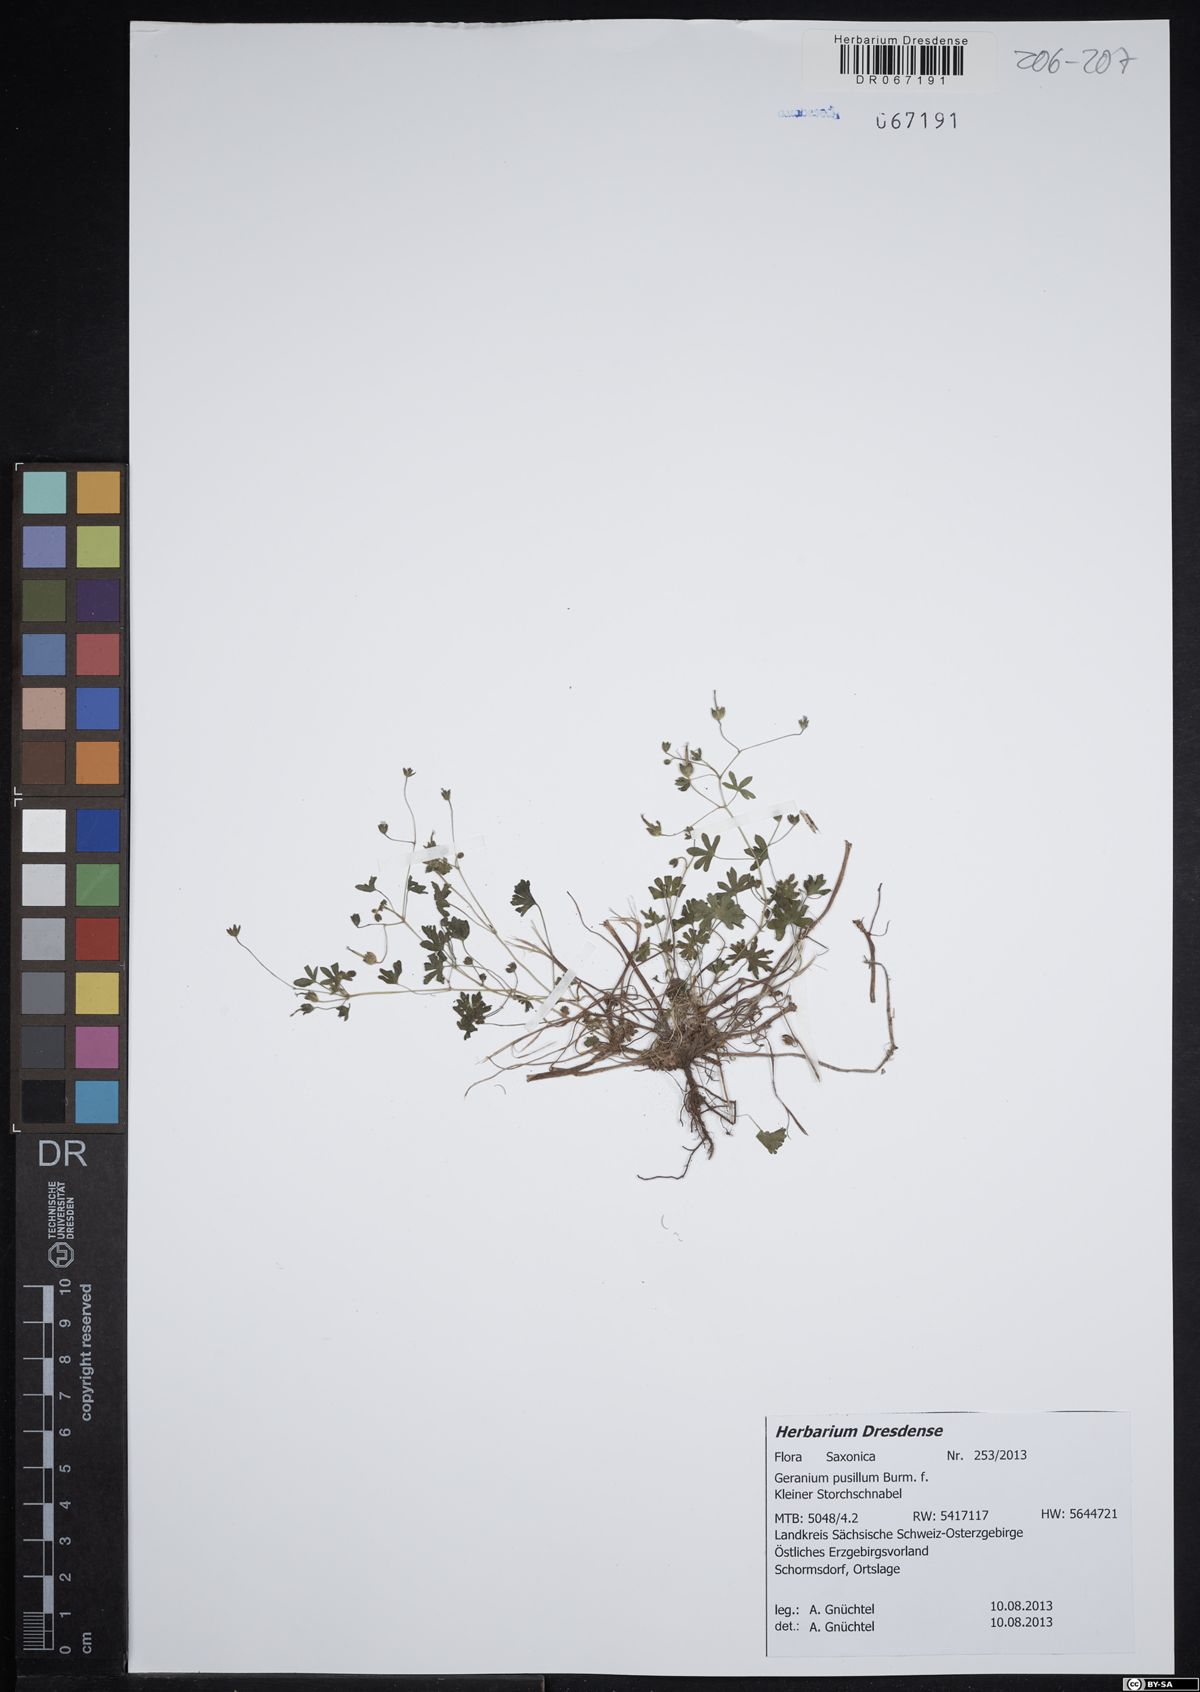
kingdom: Plantae
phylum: Tracheophyta
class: Magnoliopsida
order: Geraniales
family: Geraniaceae
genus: Geranium
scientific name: Geranium pusillum
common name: Small geranium
